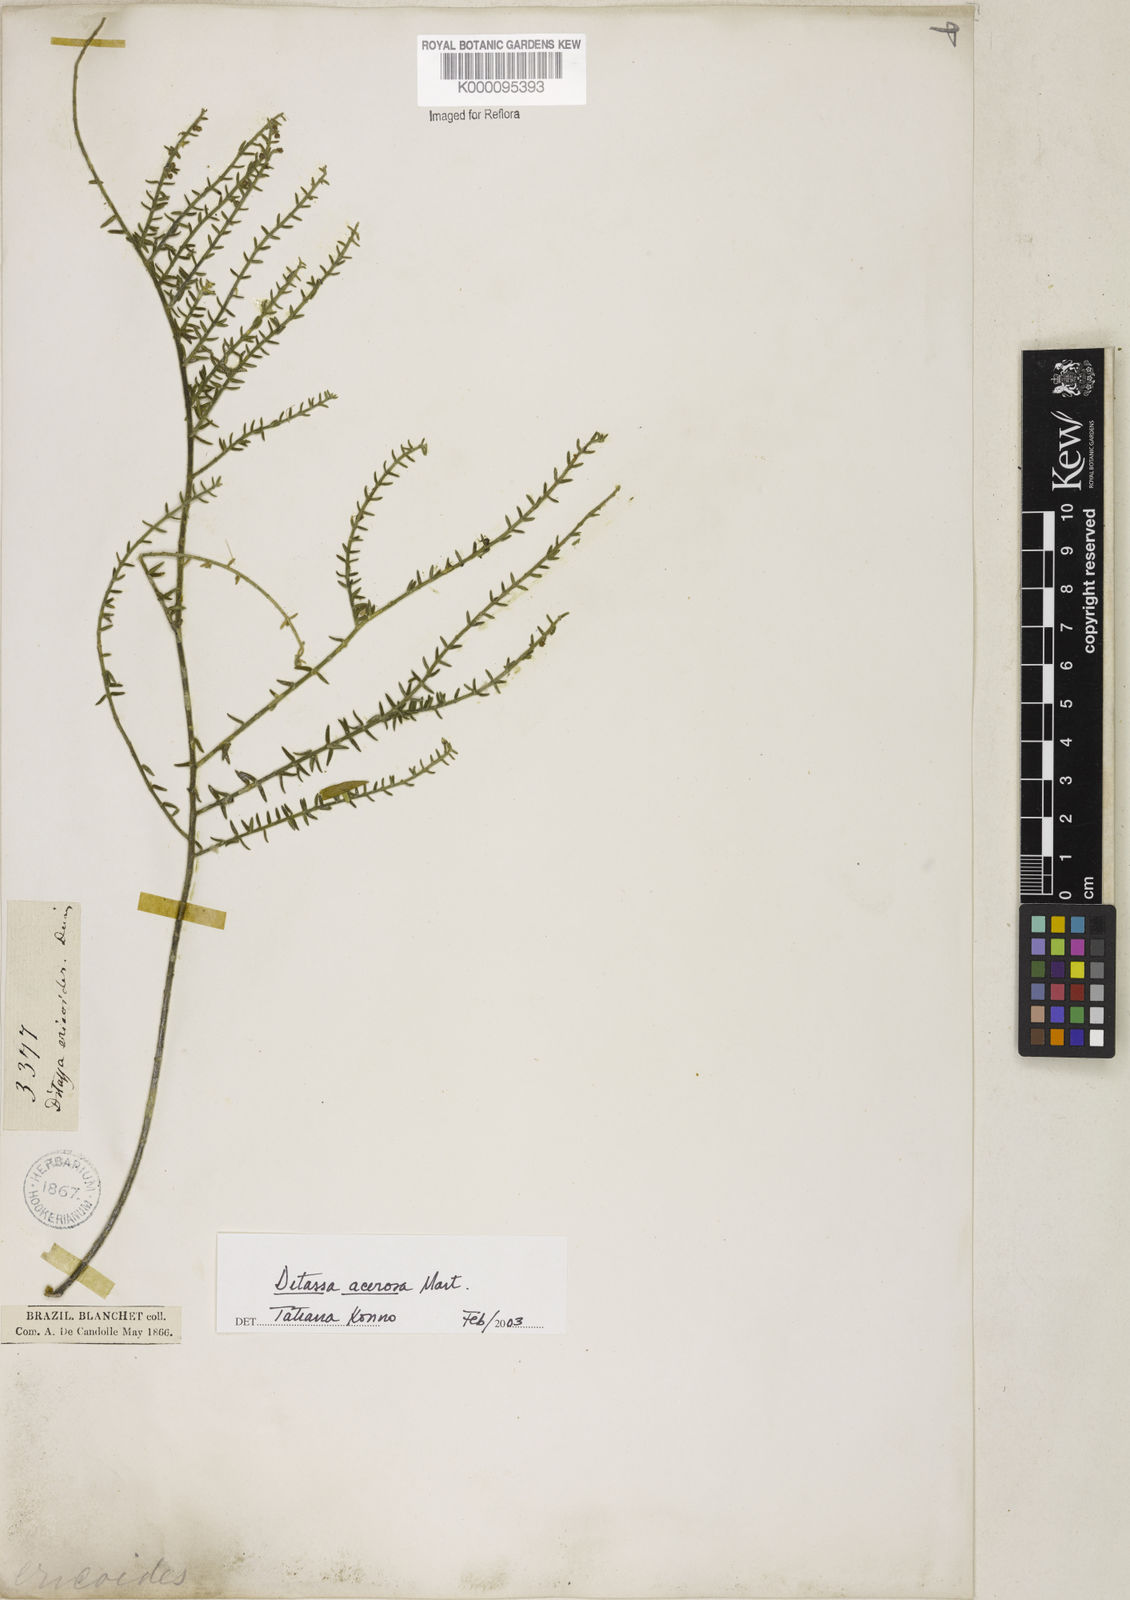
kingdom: Plantae
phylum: Tracheophyta
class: Magnoliopsida
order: Gentianales
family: Apocynaceae
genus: Minaria
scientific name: Minaria acerosa
